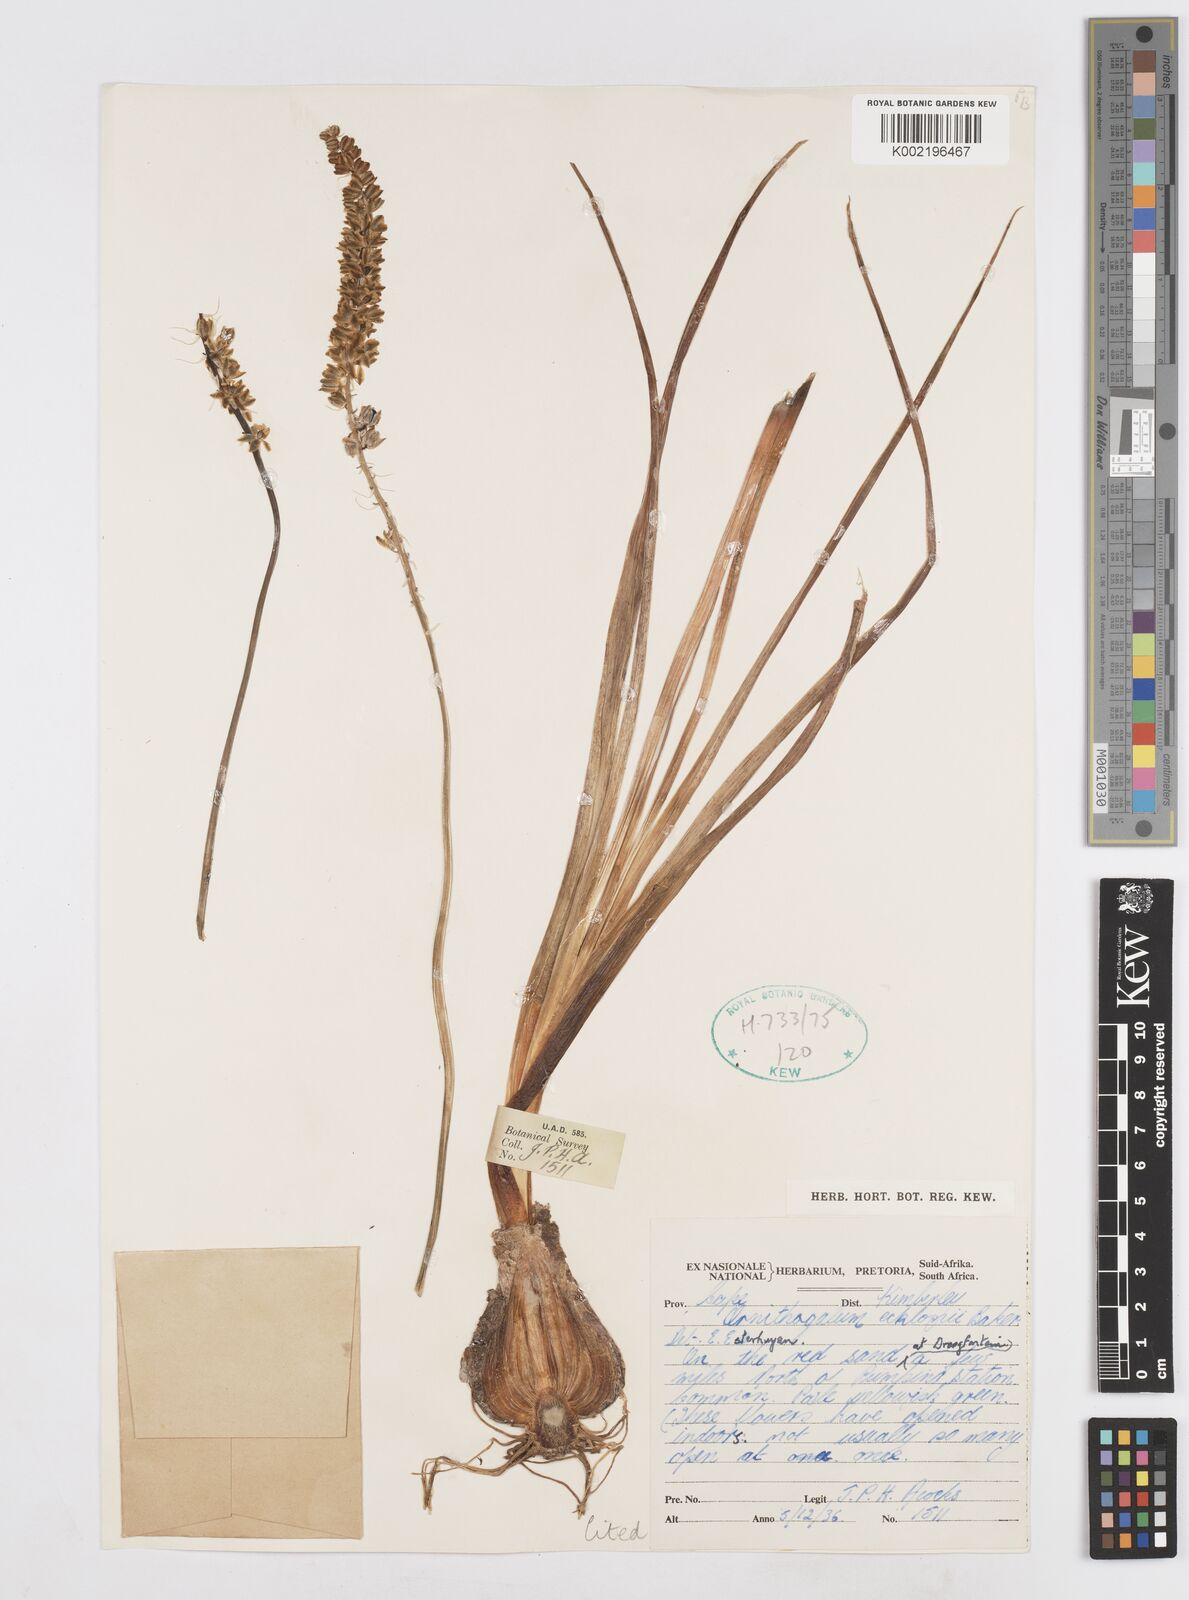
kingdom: Plantae
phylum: Tracheophyta
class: Liliopsida
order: Asparagales
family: Asparagaceae
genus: Albuca
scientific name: Albuca virens
